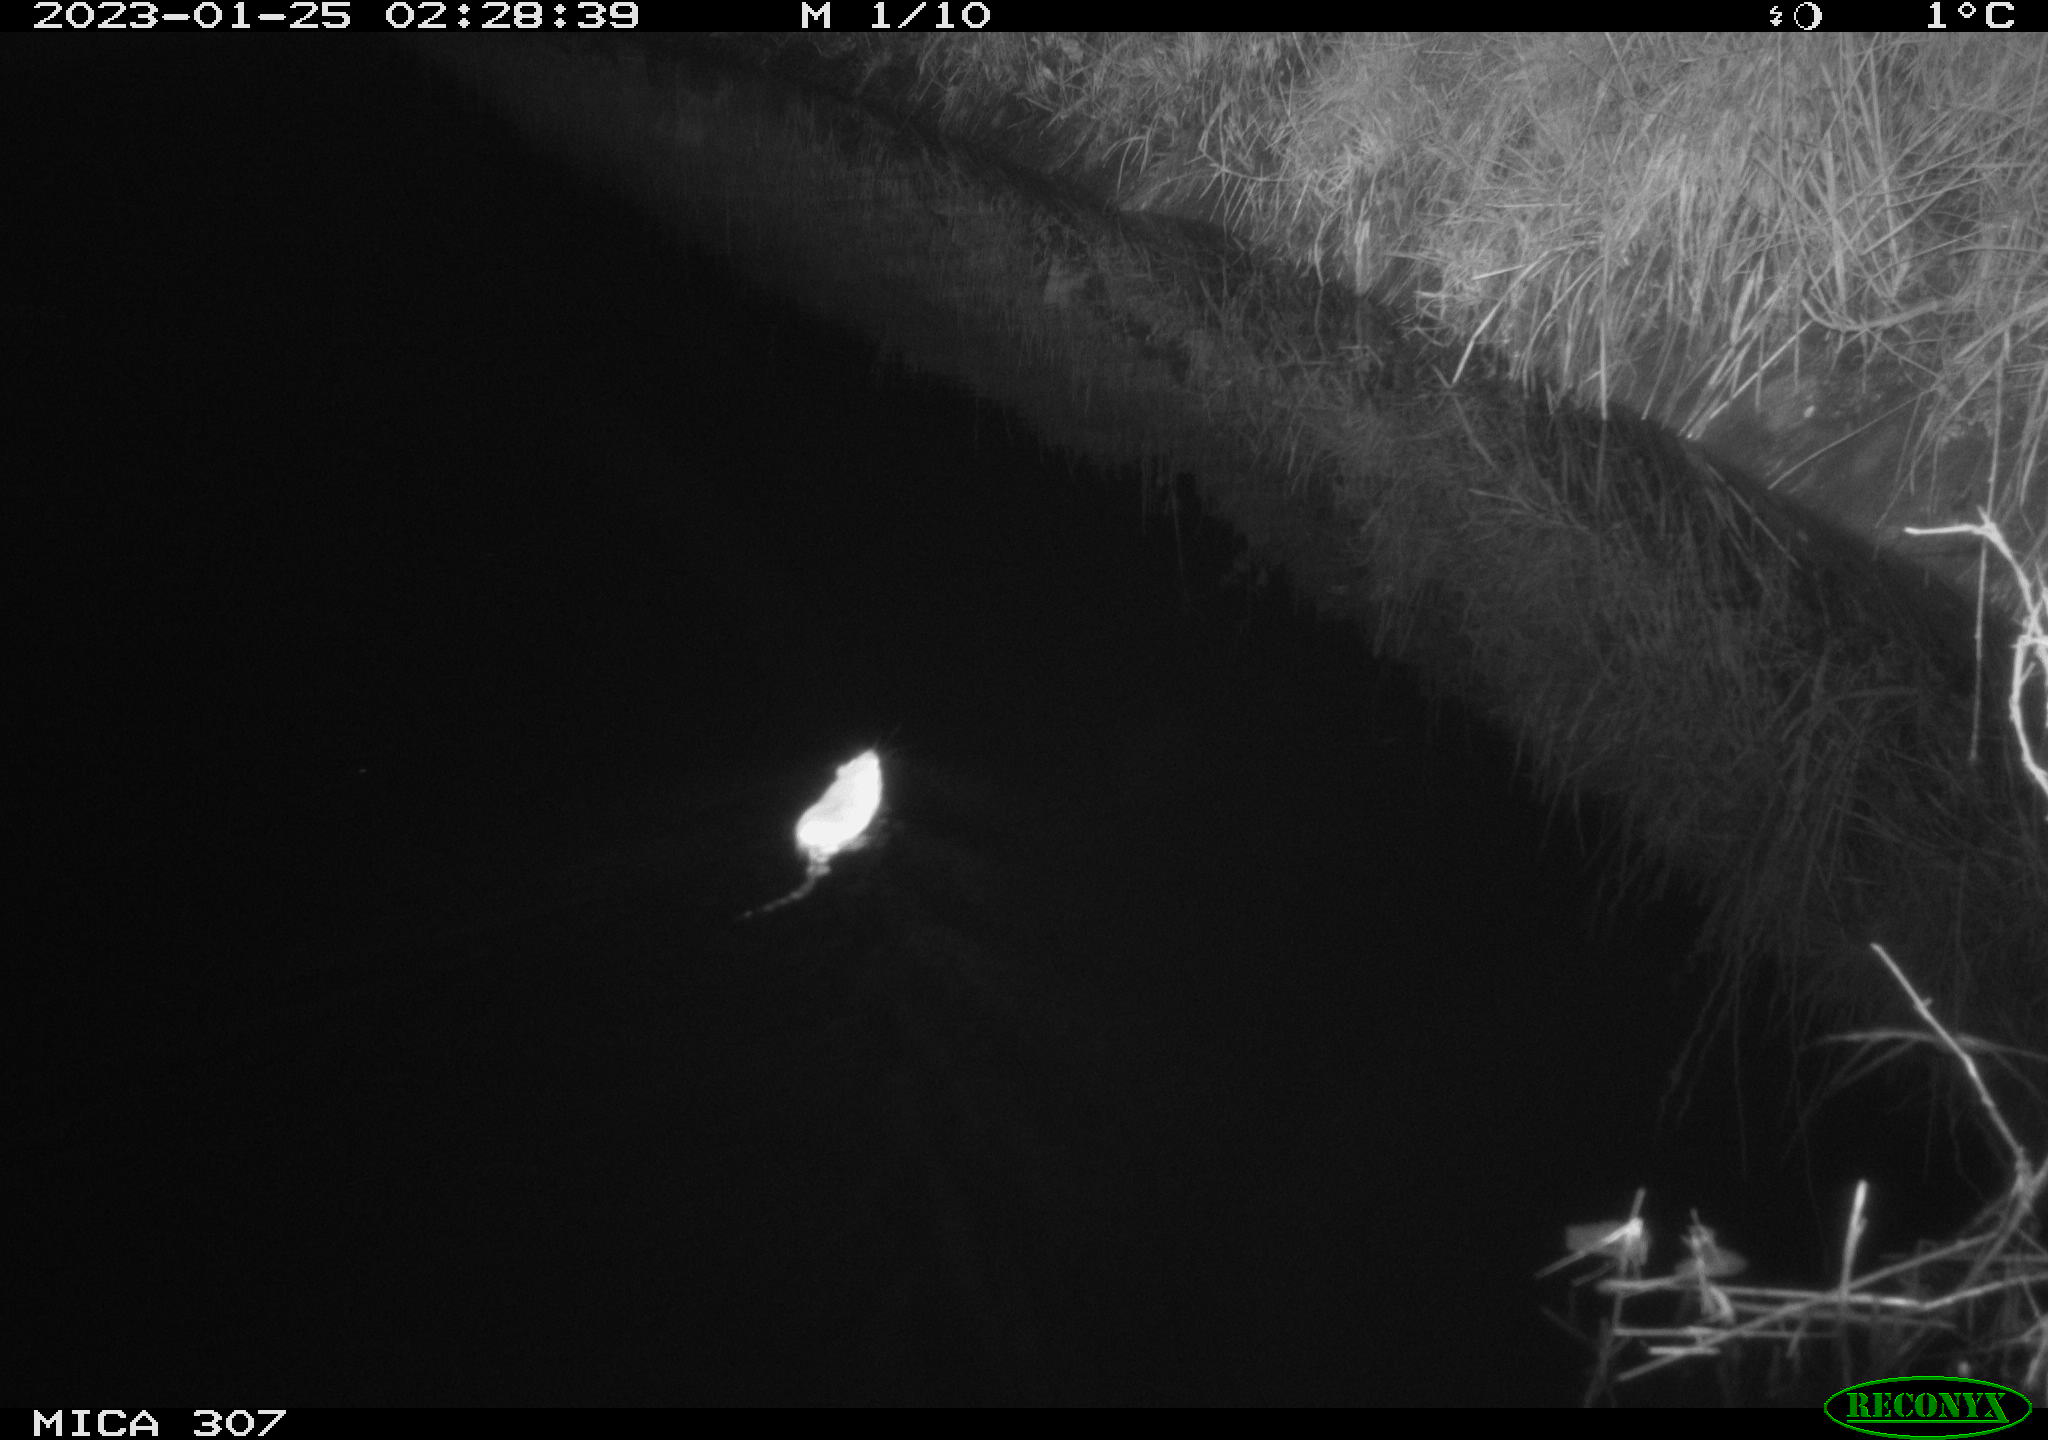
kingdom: Animalia
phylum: Chordata
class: Mammalia
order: Rodentia
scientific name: Rodentia
